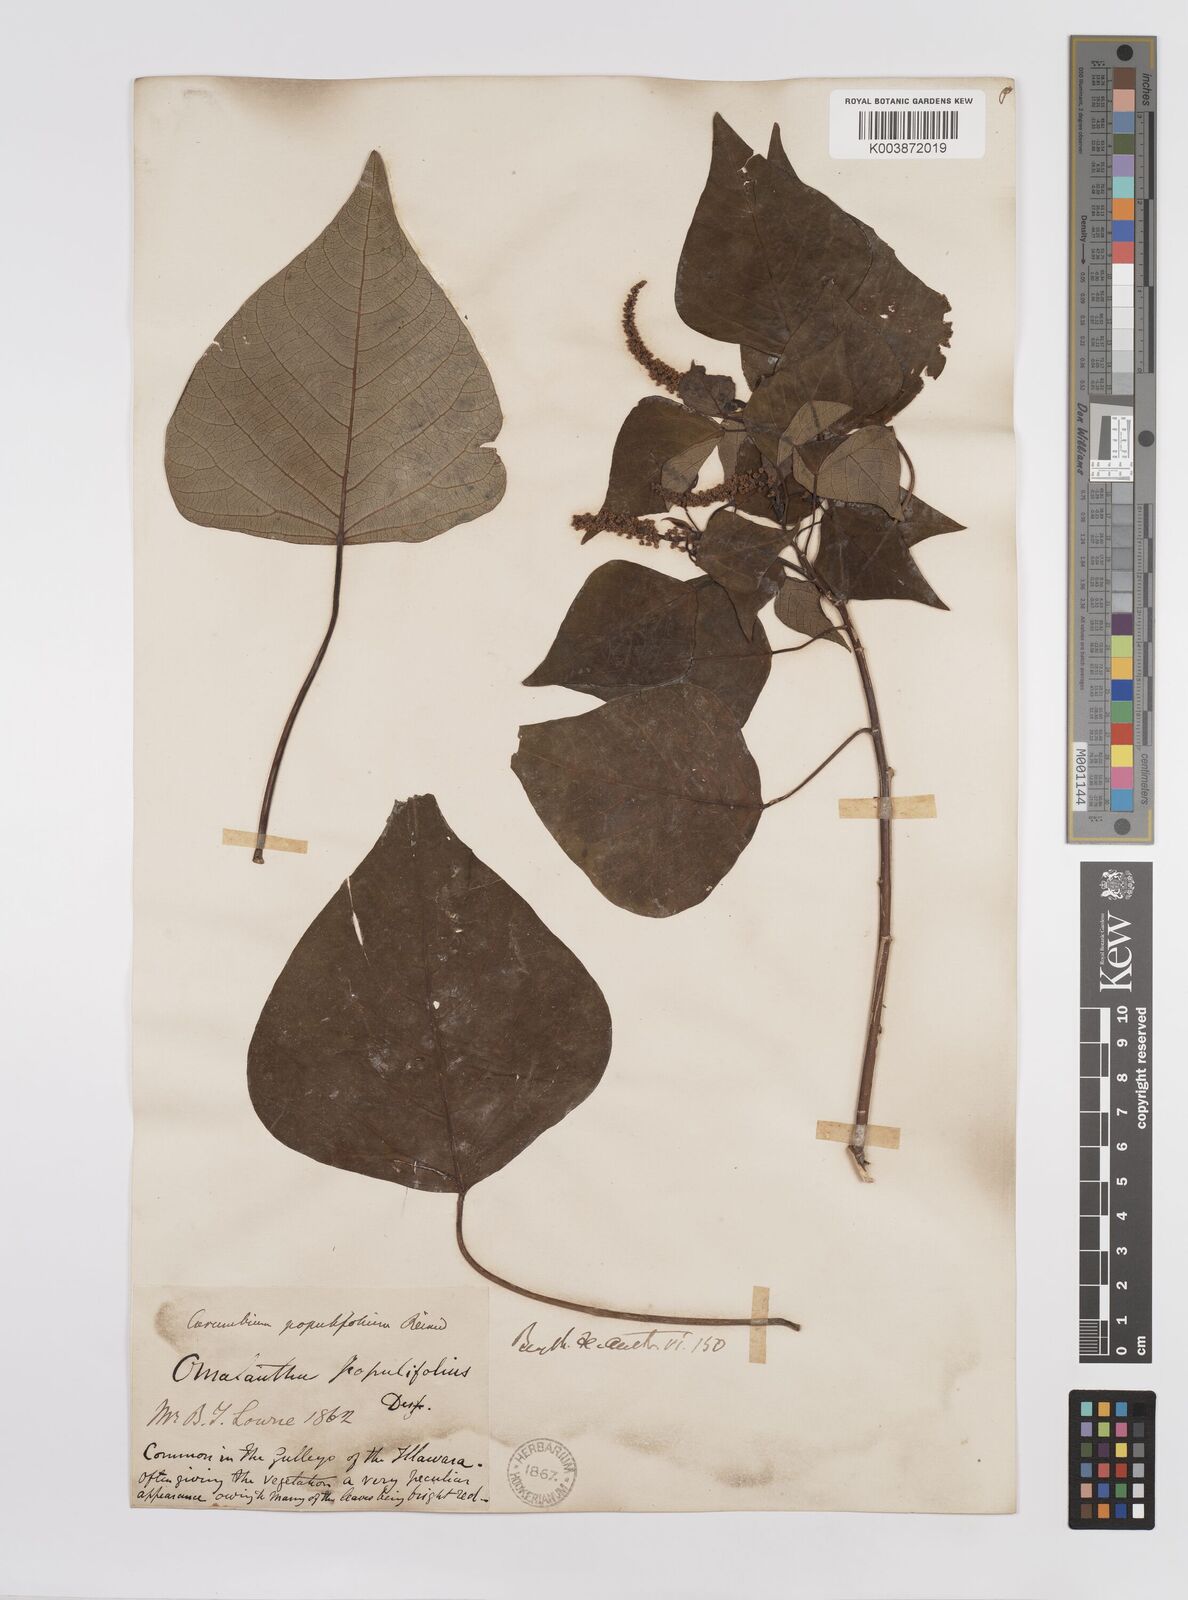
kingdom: Plantae
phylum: Tracheophyta
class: Magnoliopsida
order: Malpighiales
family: Euphorbiaceae
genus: Homalanthus
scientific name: Homalanthus populifolius
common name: Queensland poplar
